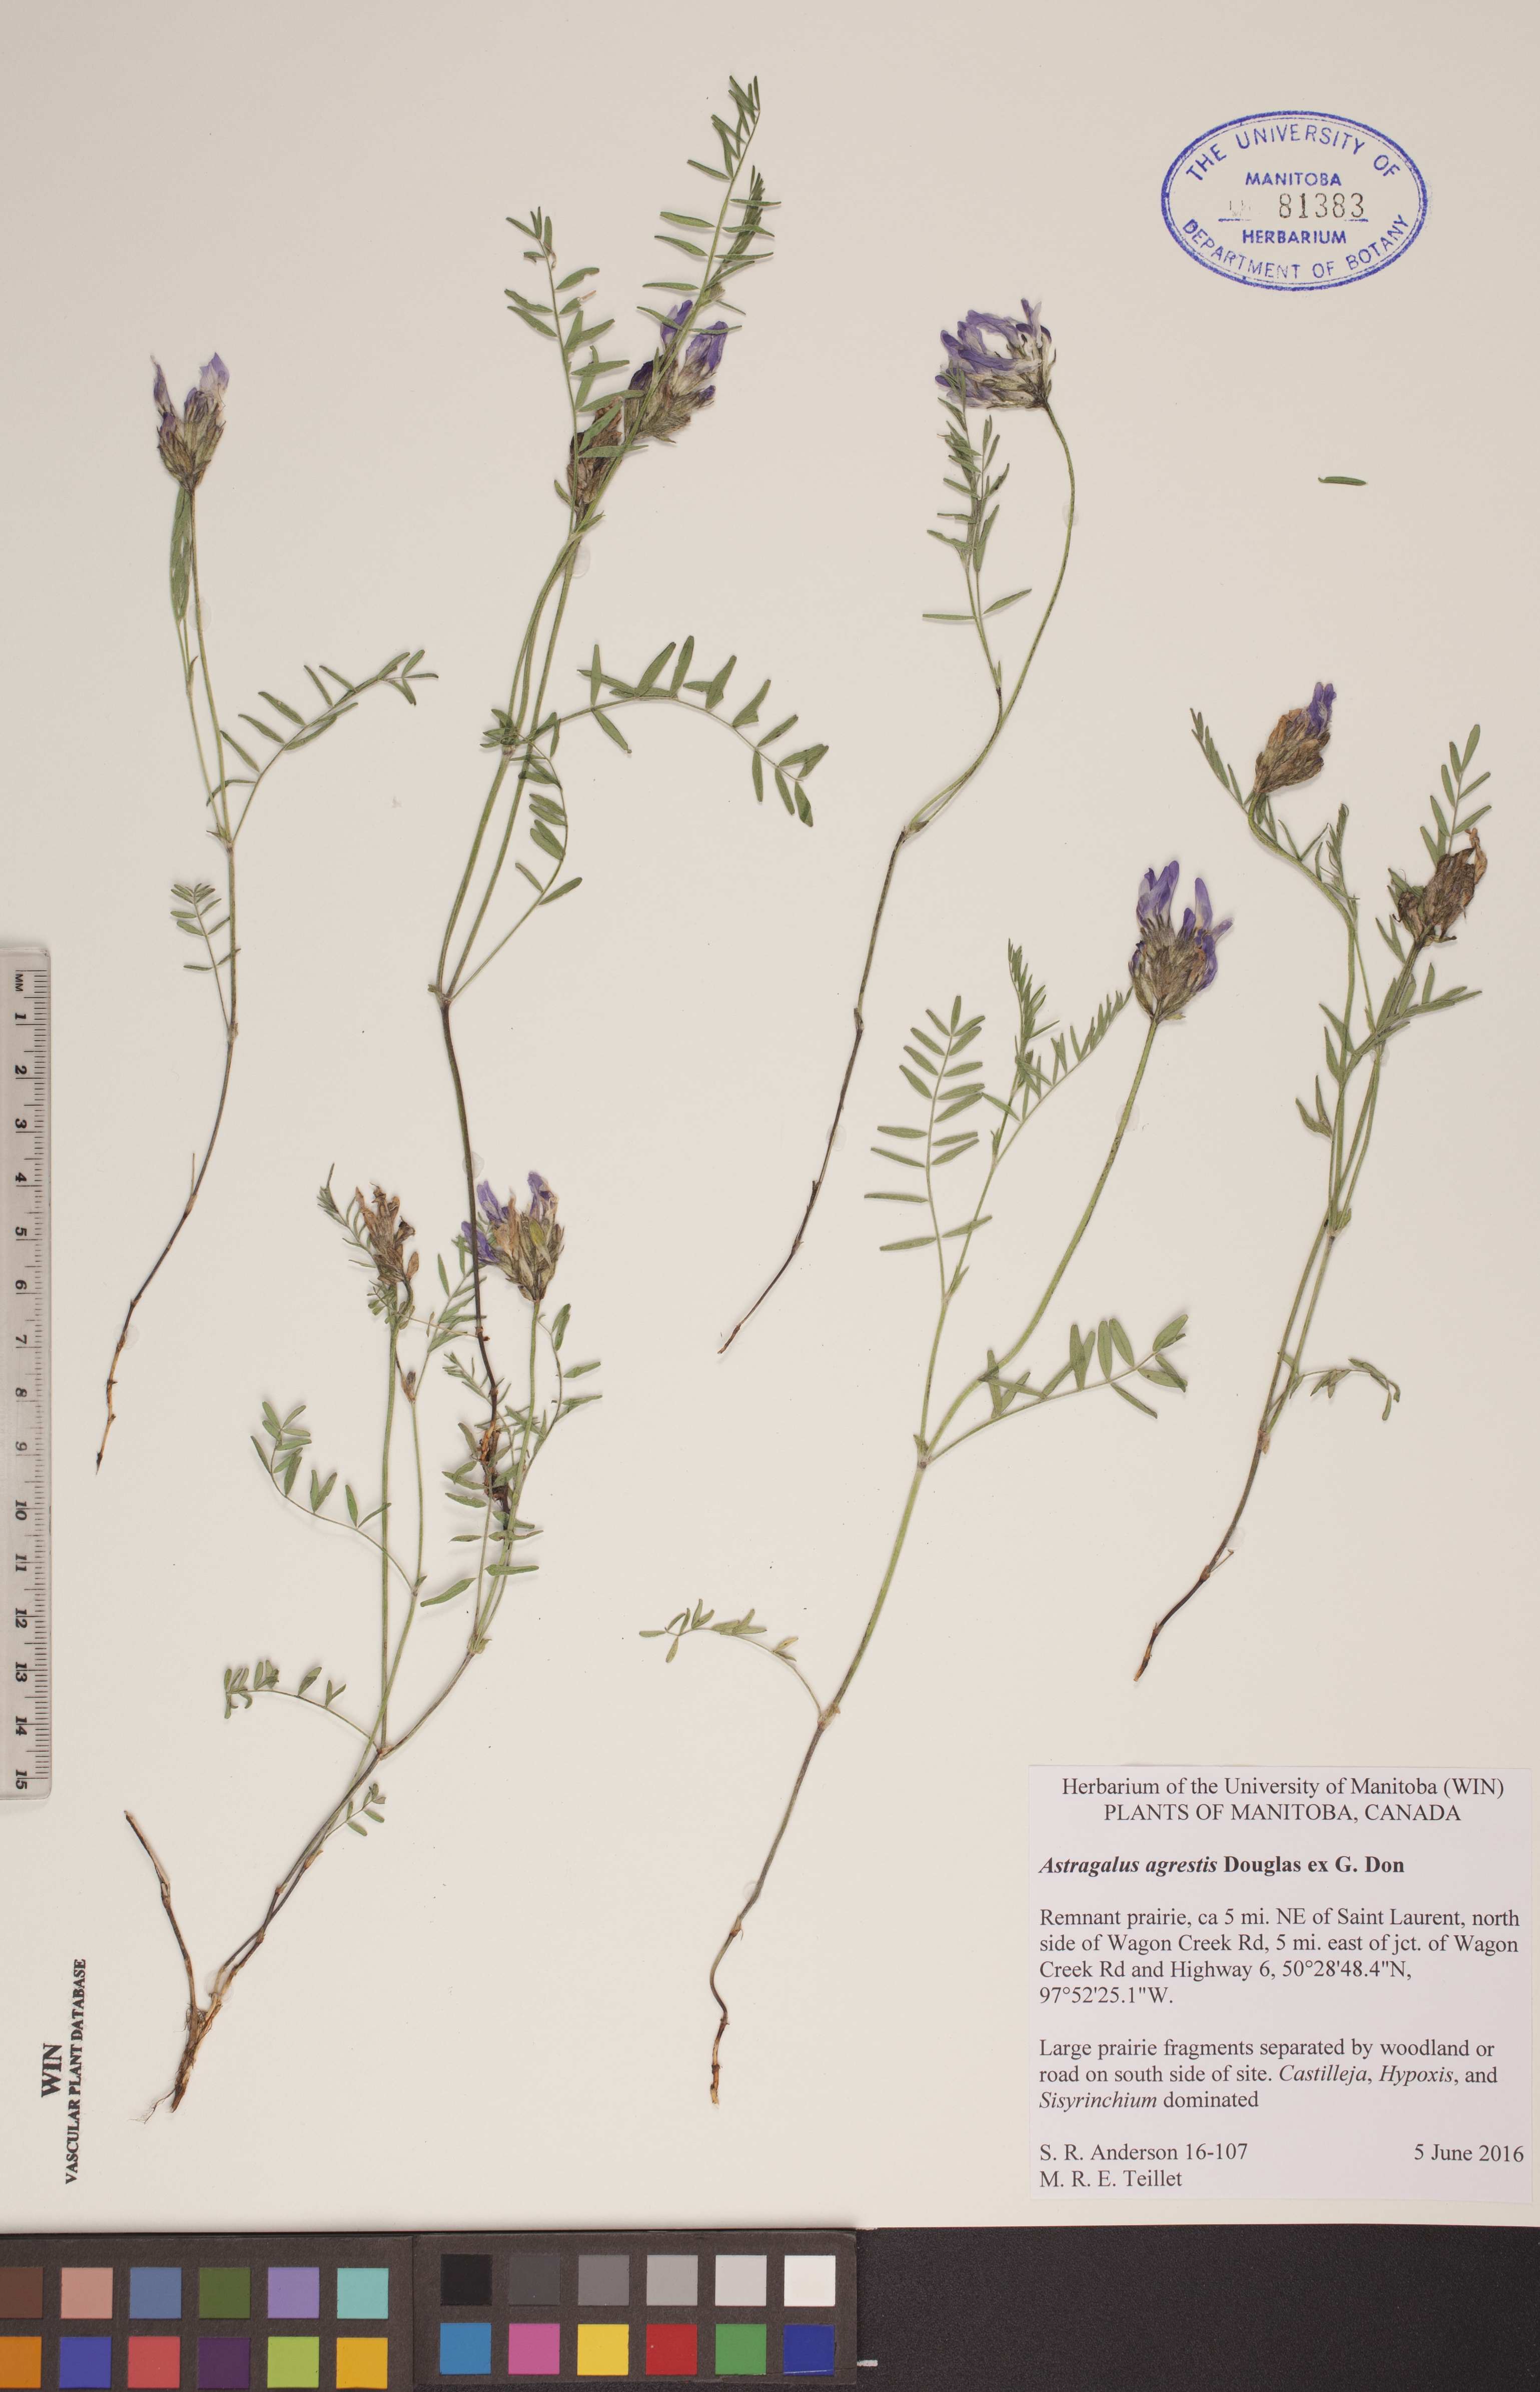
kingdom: Plantae
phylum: Tracheophyta
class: Magnoliopsida
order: Fabales
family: Fabaceae
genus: Astragalus
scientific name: Astragalus agrestis
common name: Field milk-vetch
